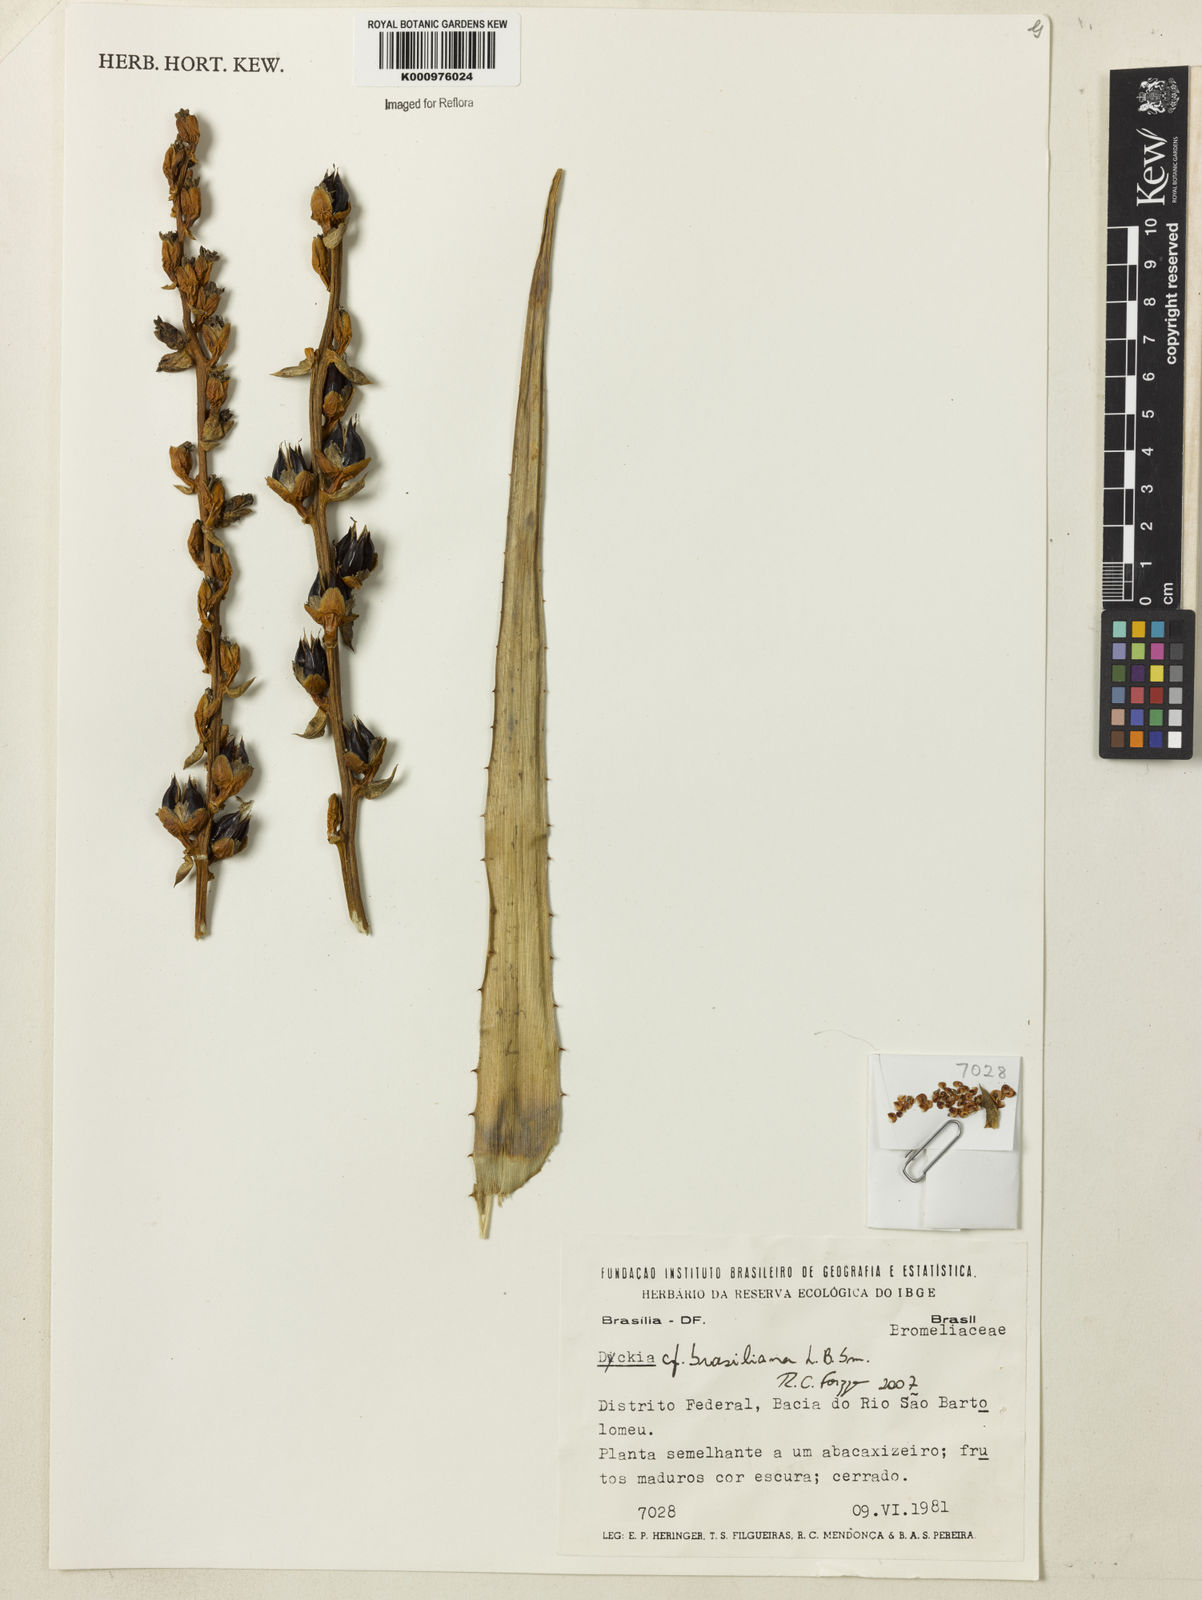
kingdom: Plantae
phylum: Tracheophyta
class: Liliopsida
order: Poales
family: Bromeliaceae
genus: Dyckia
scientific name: Dyckia weddelliana
